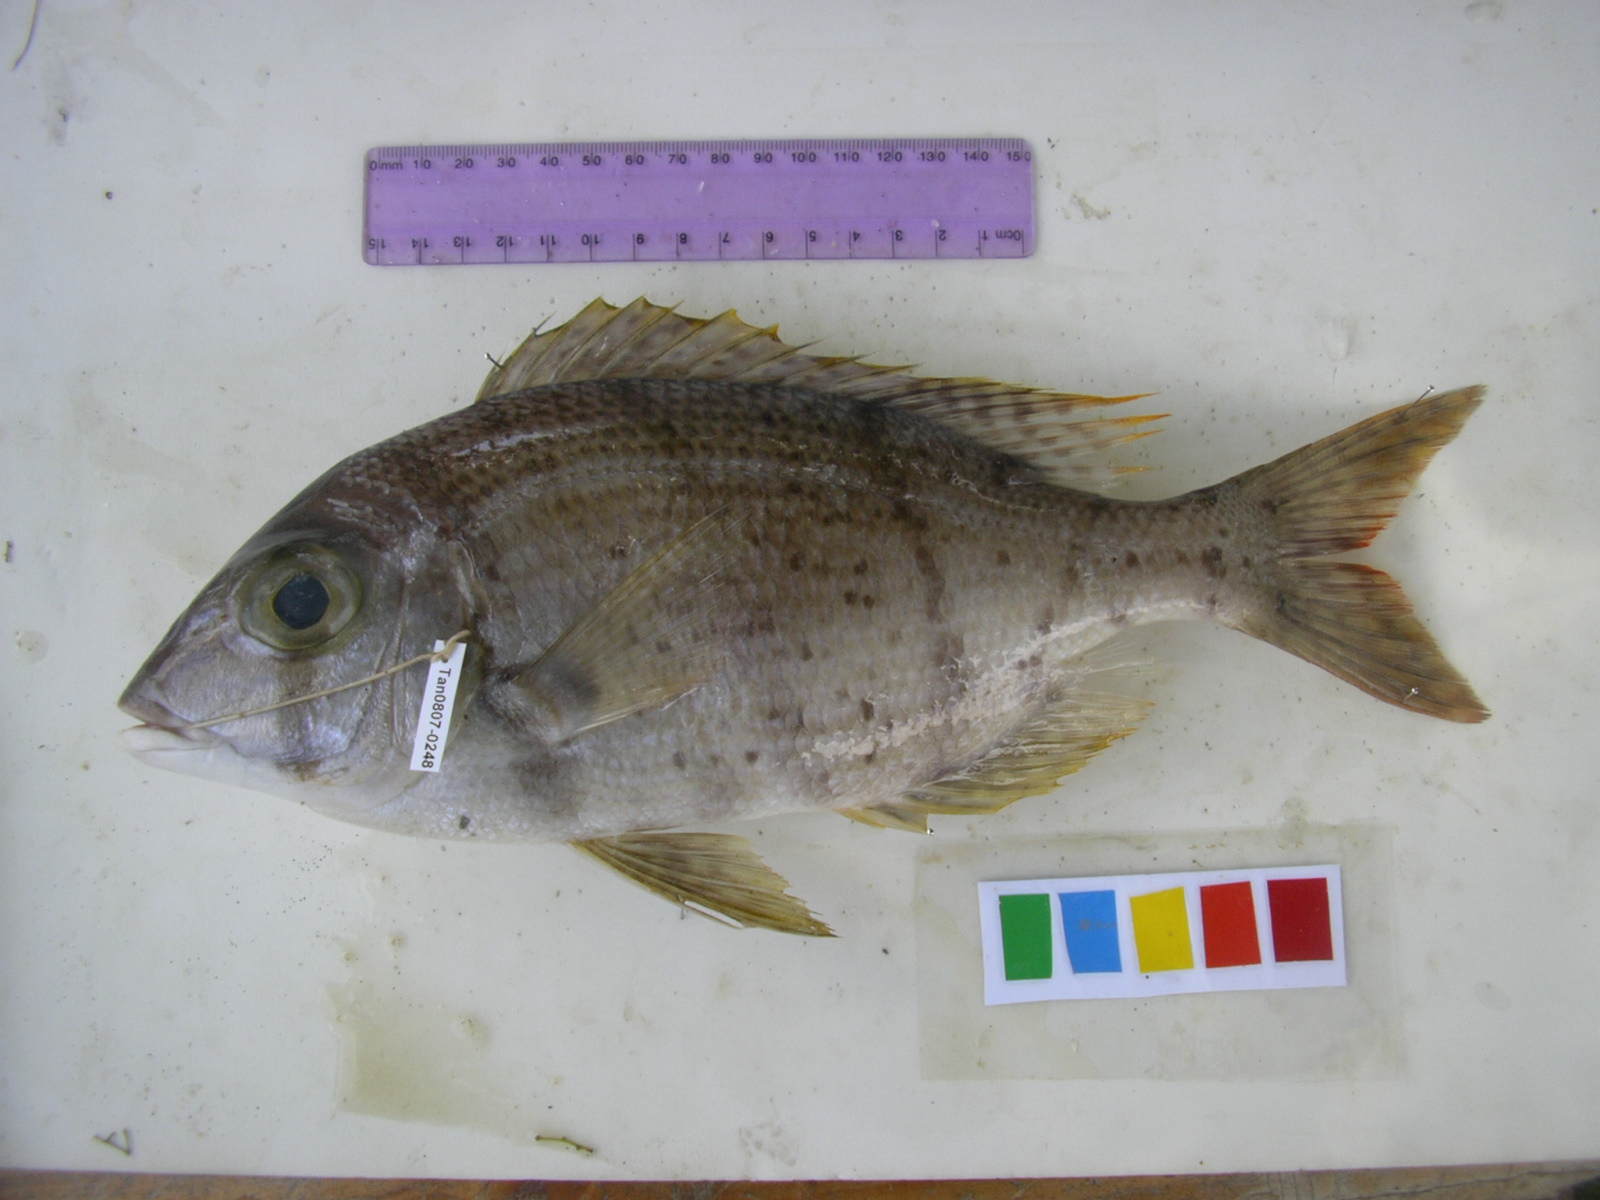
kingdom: Animalia
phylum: Chordata
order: Perciformes
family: Lethrinidae
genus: Gymnocranius
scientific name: Gymnocranius grandoculis
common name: Blue-lined large-eye bream
